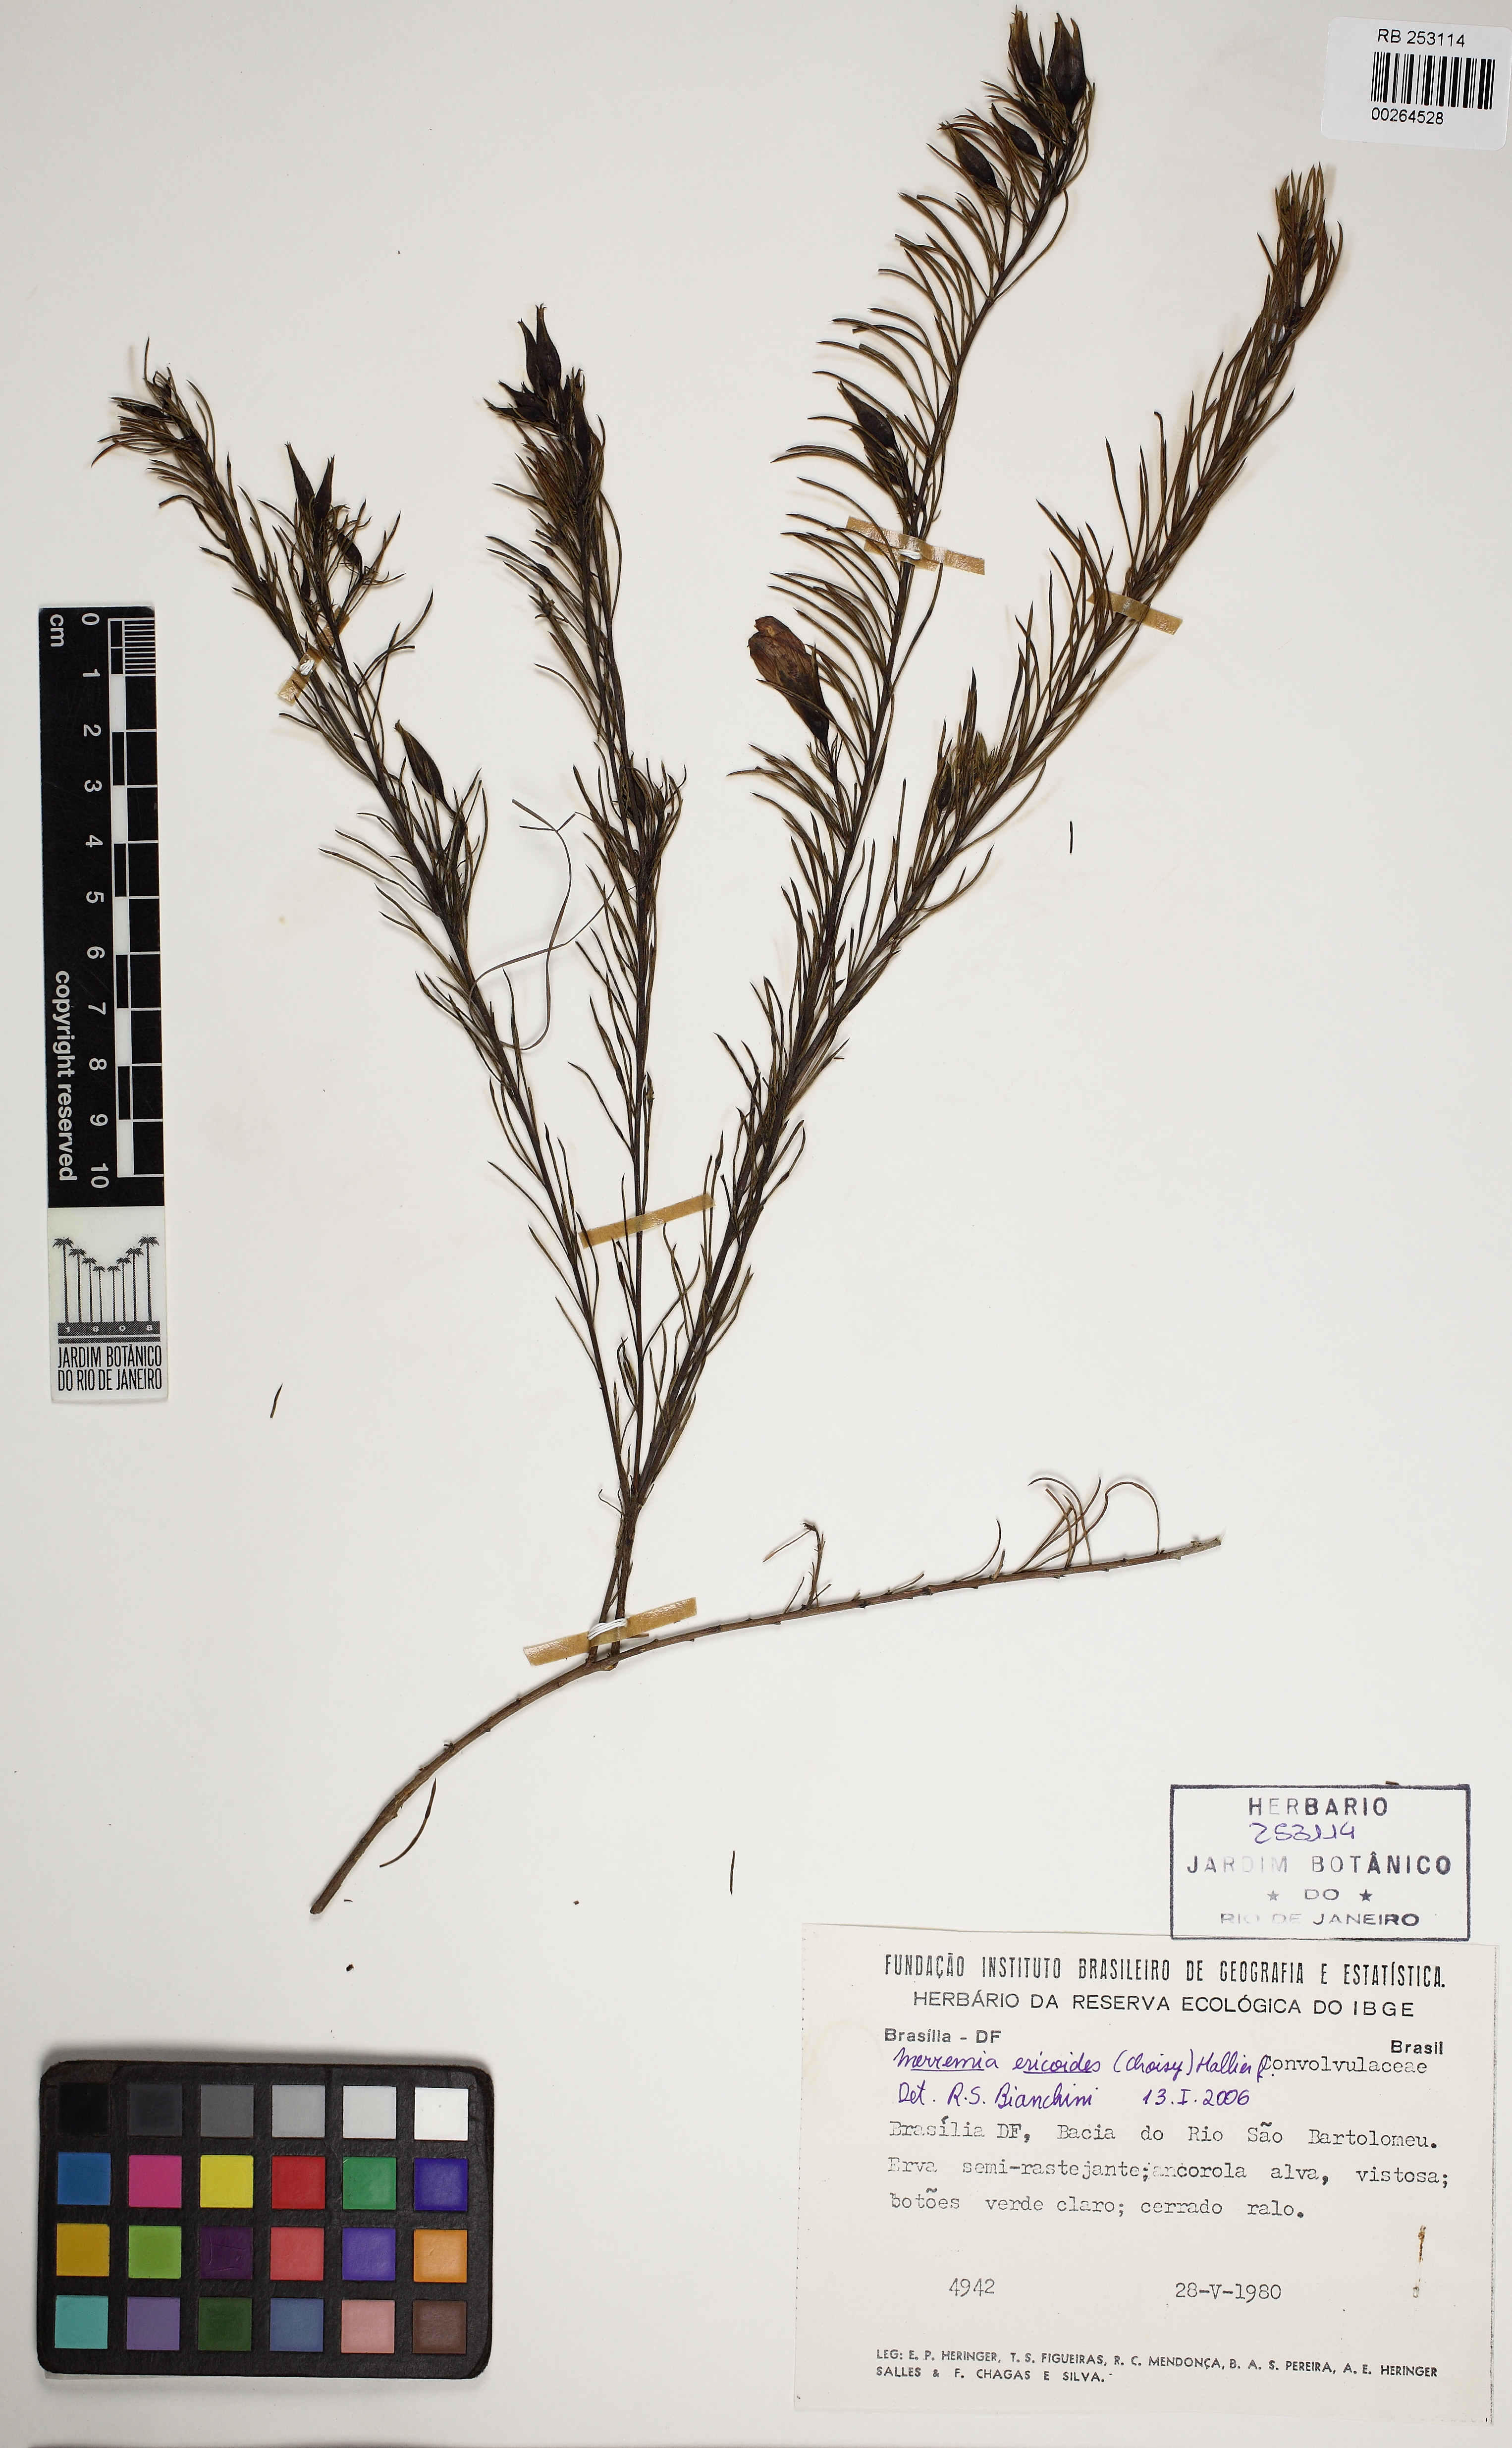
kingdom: Plantae
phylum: Tracheophyta
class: Magnoliopsida
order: Solanales
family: Convolvulaceae
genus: Distimake
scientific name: Distimake ericoides
